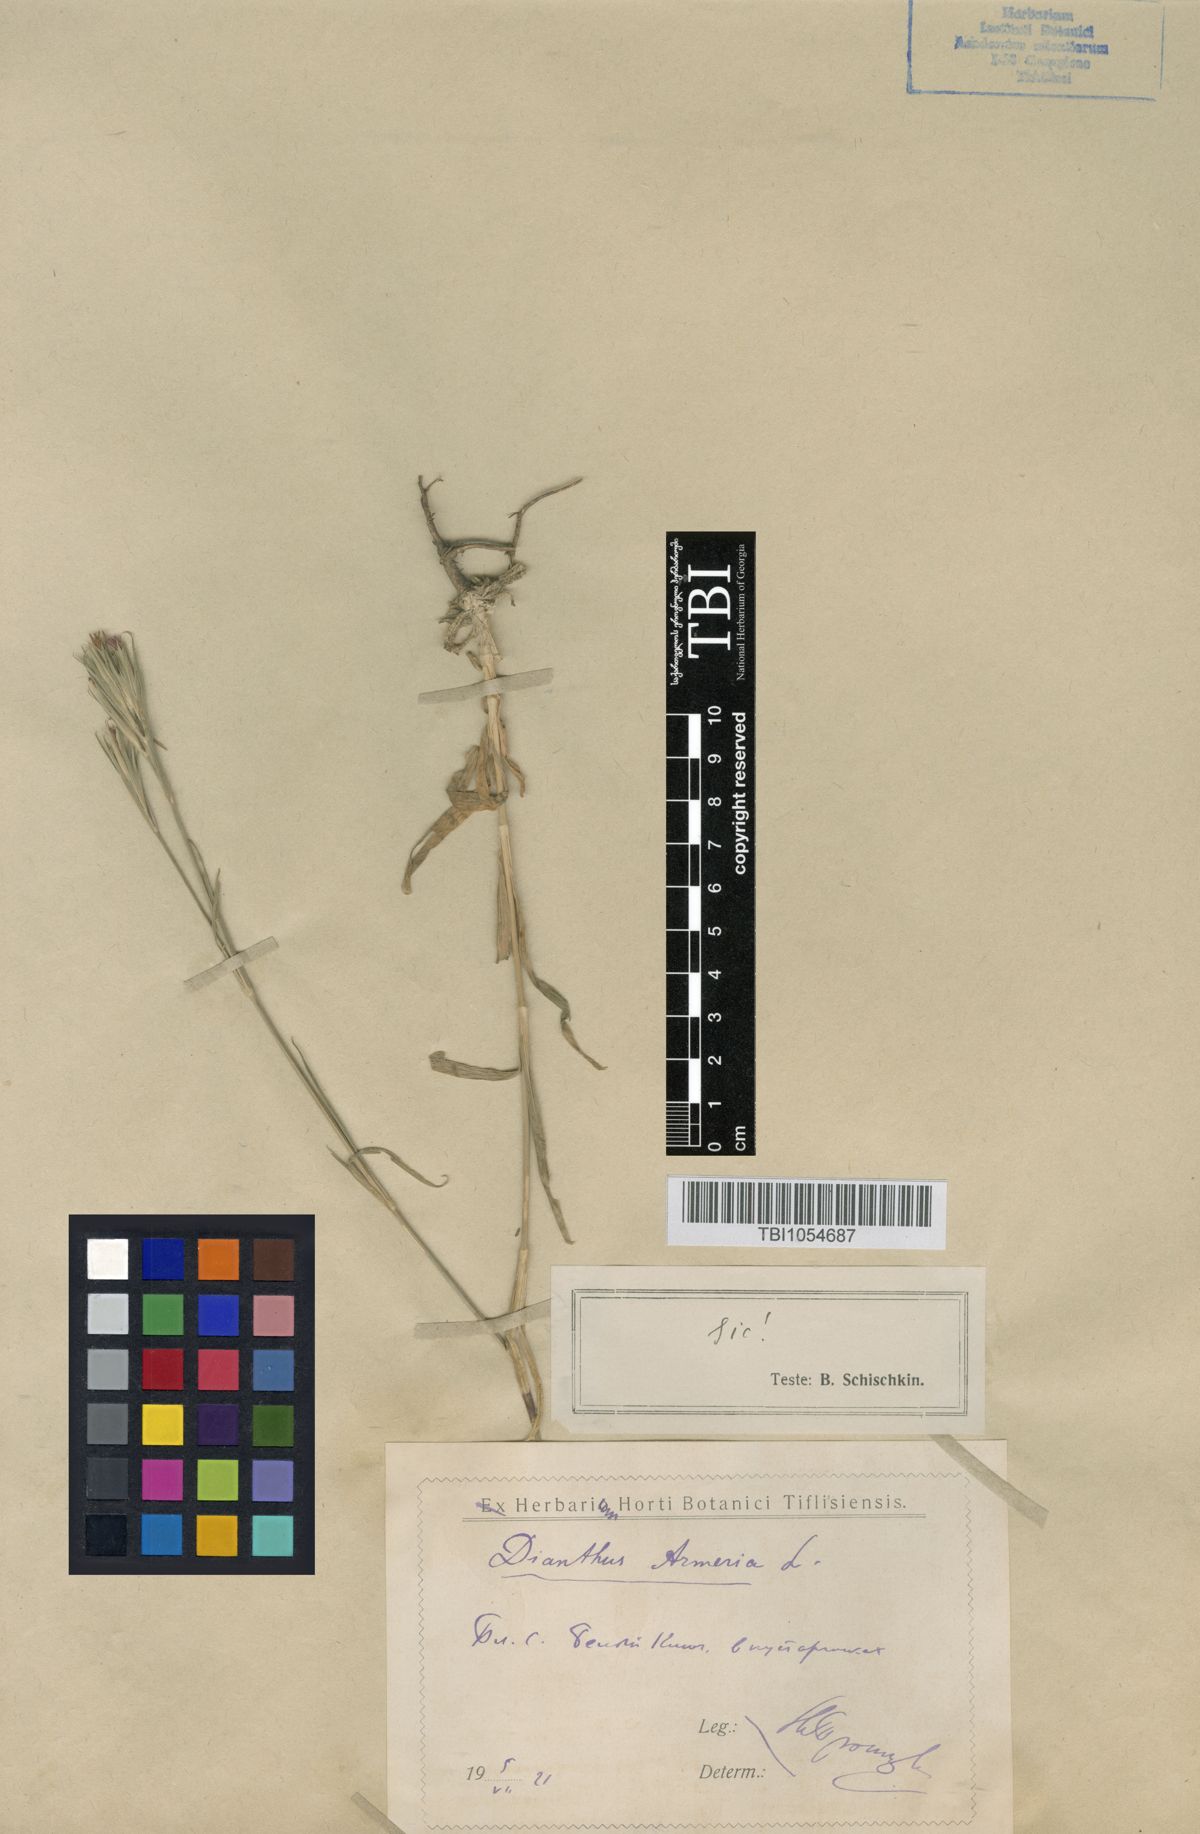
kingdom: Plantae
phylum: Tracheophyta
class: Magnoliopsida
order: Caryophyllales
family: Caryophyllaceae
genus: Dianthus
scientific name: Dianthus armeria
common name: Deptford pink
